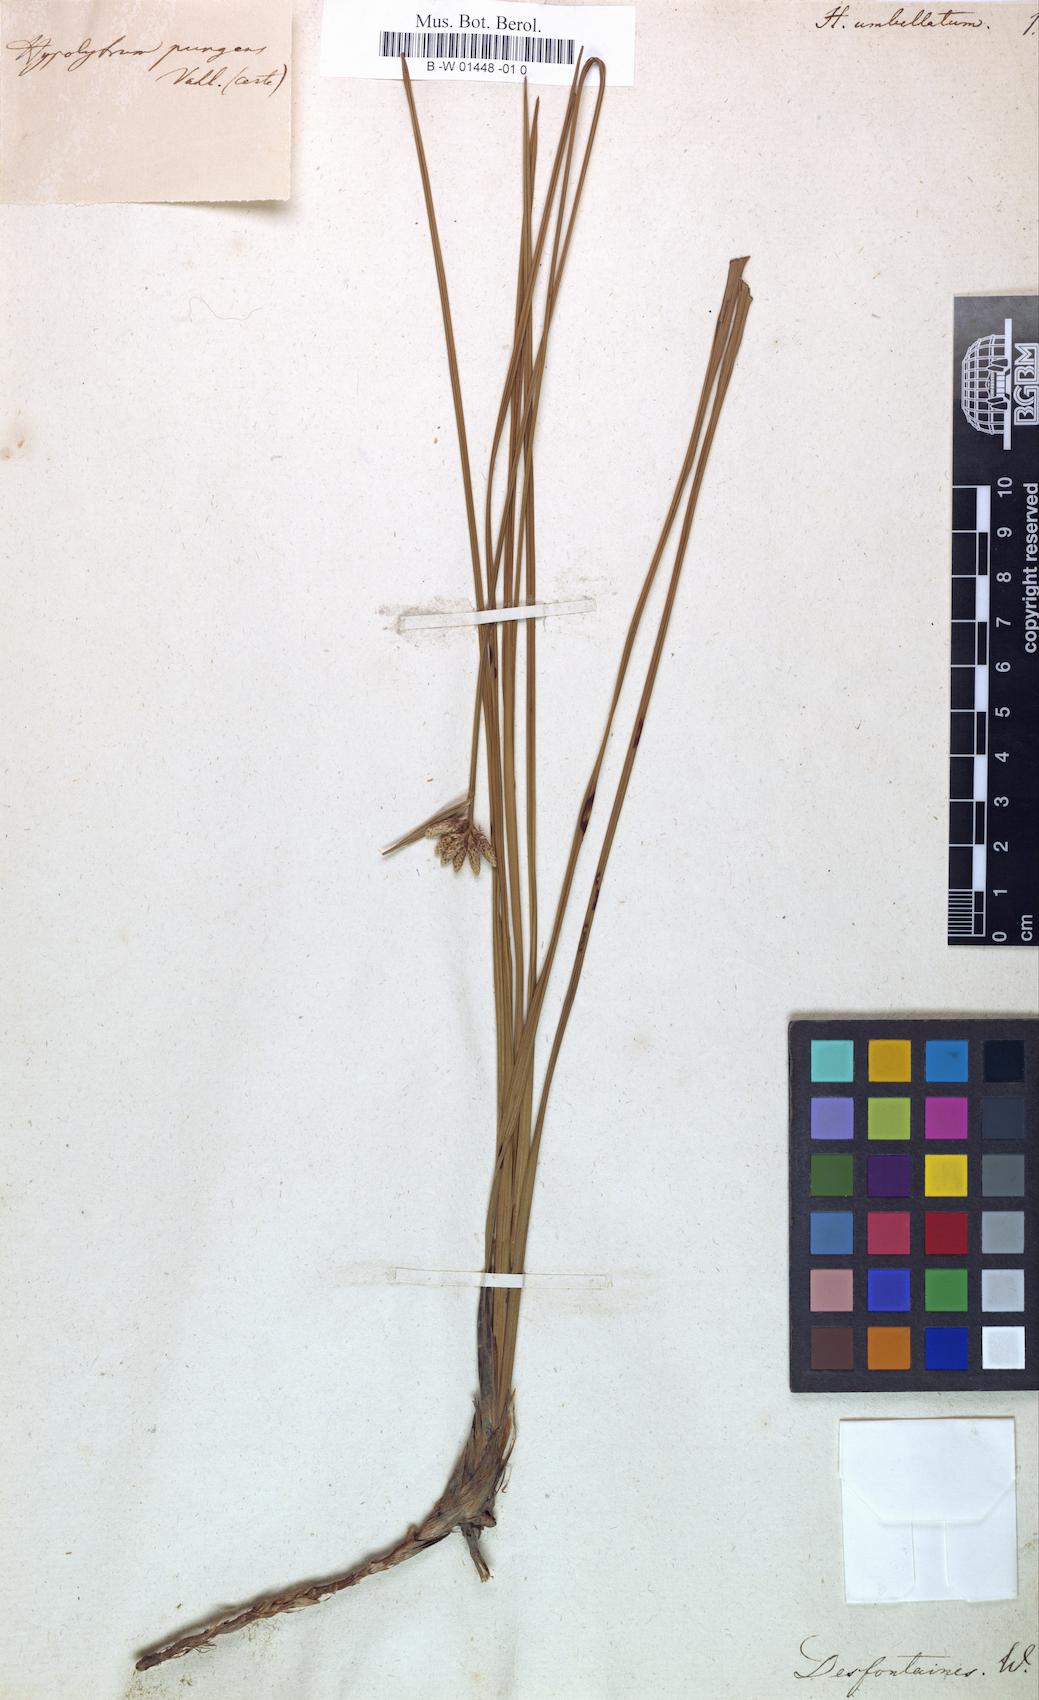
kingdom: Plantae
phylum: Tracheophyta
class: Liliopsida
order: Poales
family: Cyperaceae
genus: Cyperus
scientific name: Cyperus
